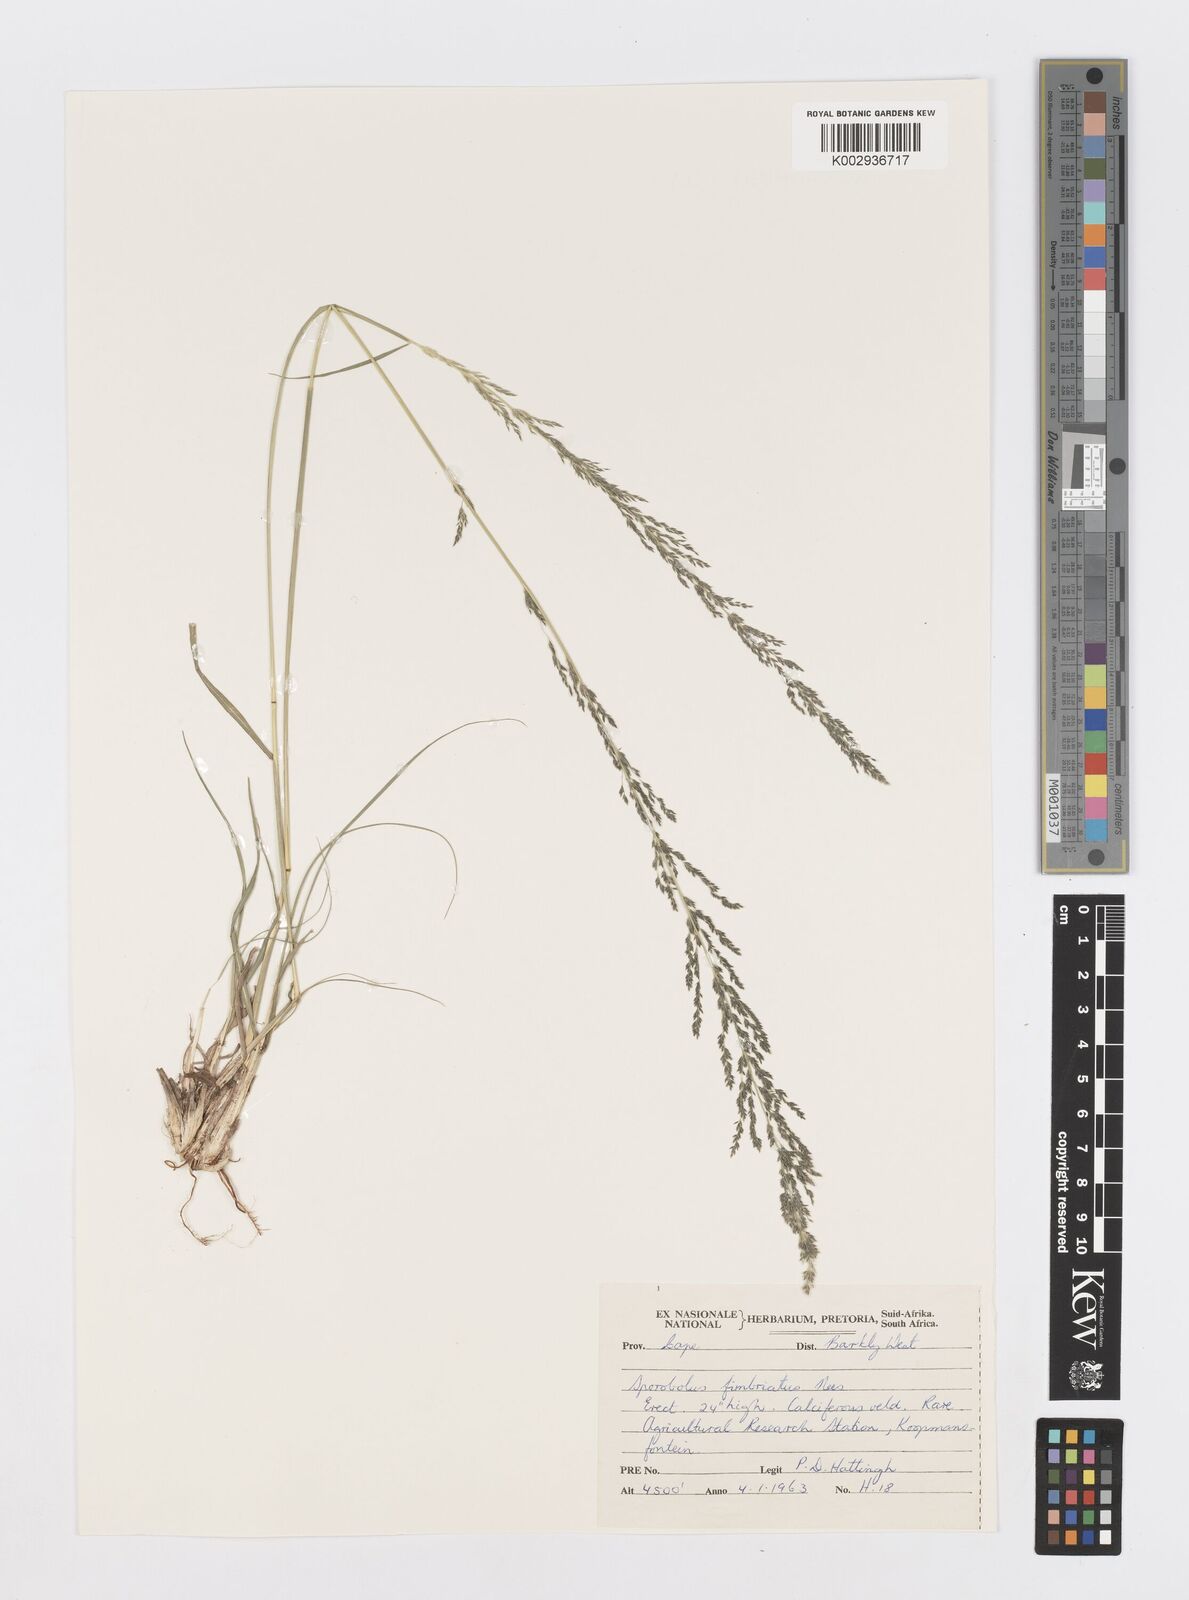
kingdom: Plantae
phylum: Tracheophyta
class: Liliopsida
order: Poales
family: Poaceae
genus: Sporobolus
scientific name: Sporobolus fimbriatus
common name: Fringed dropseed
